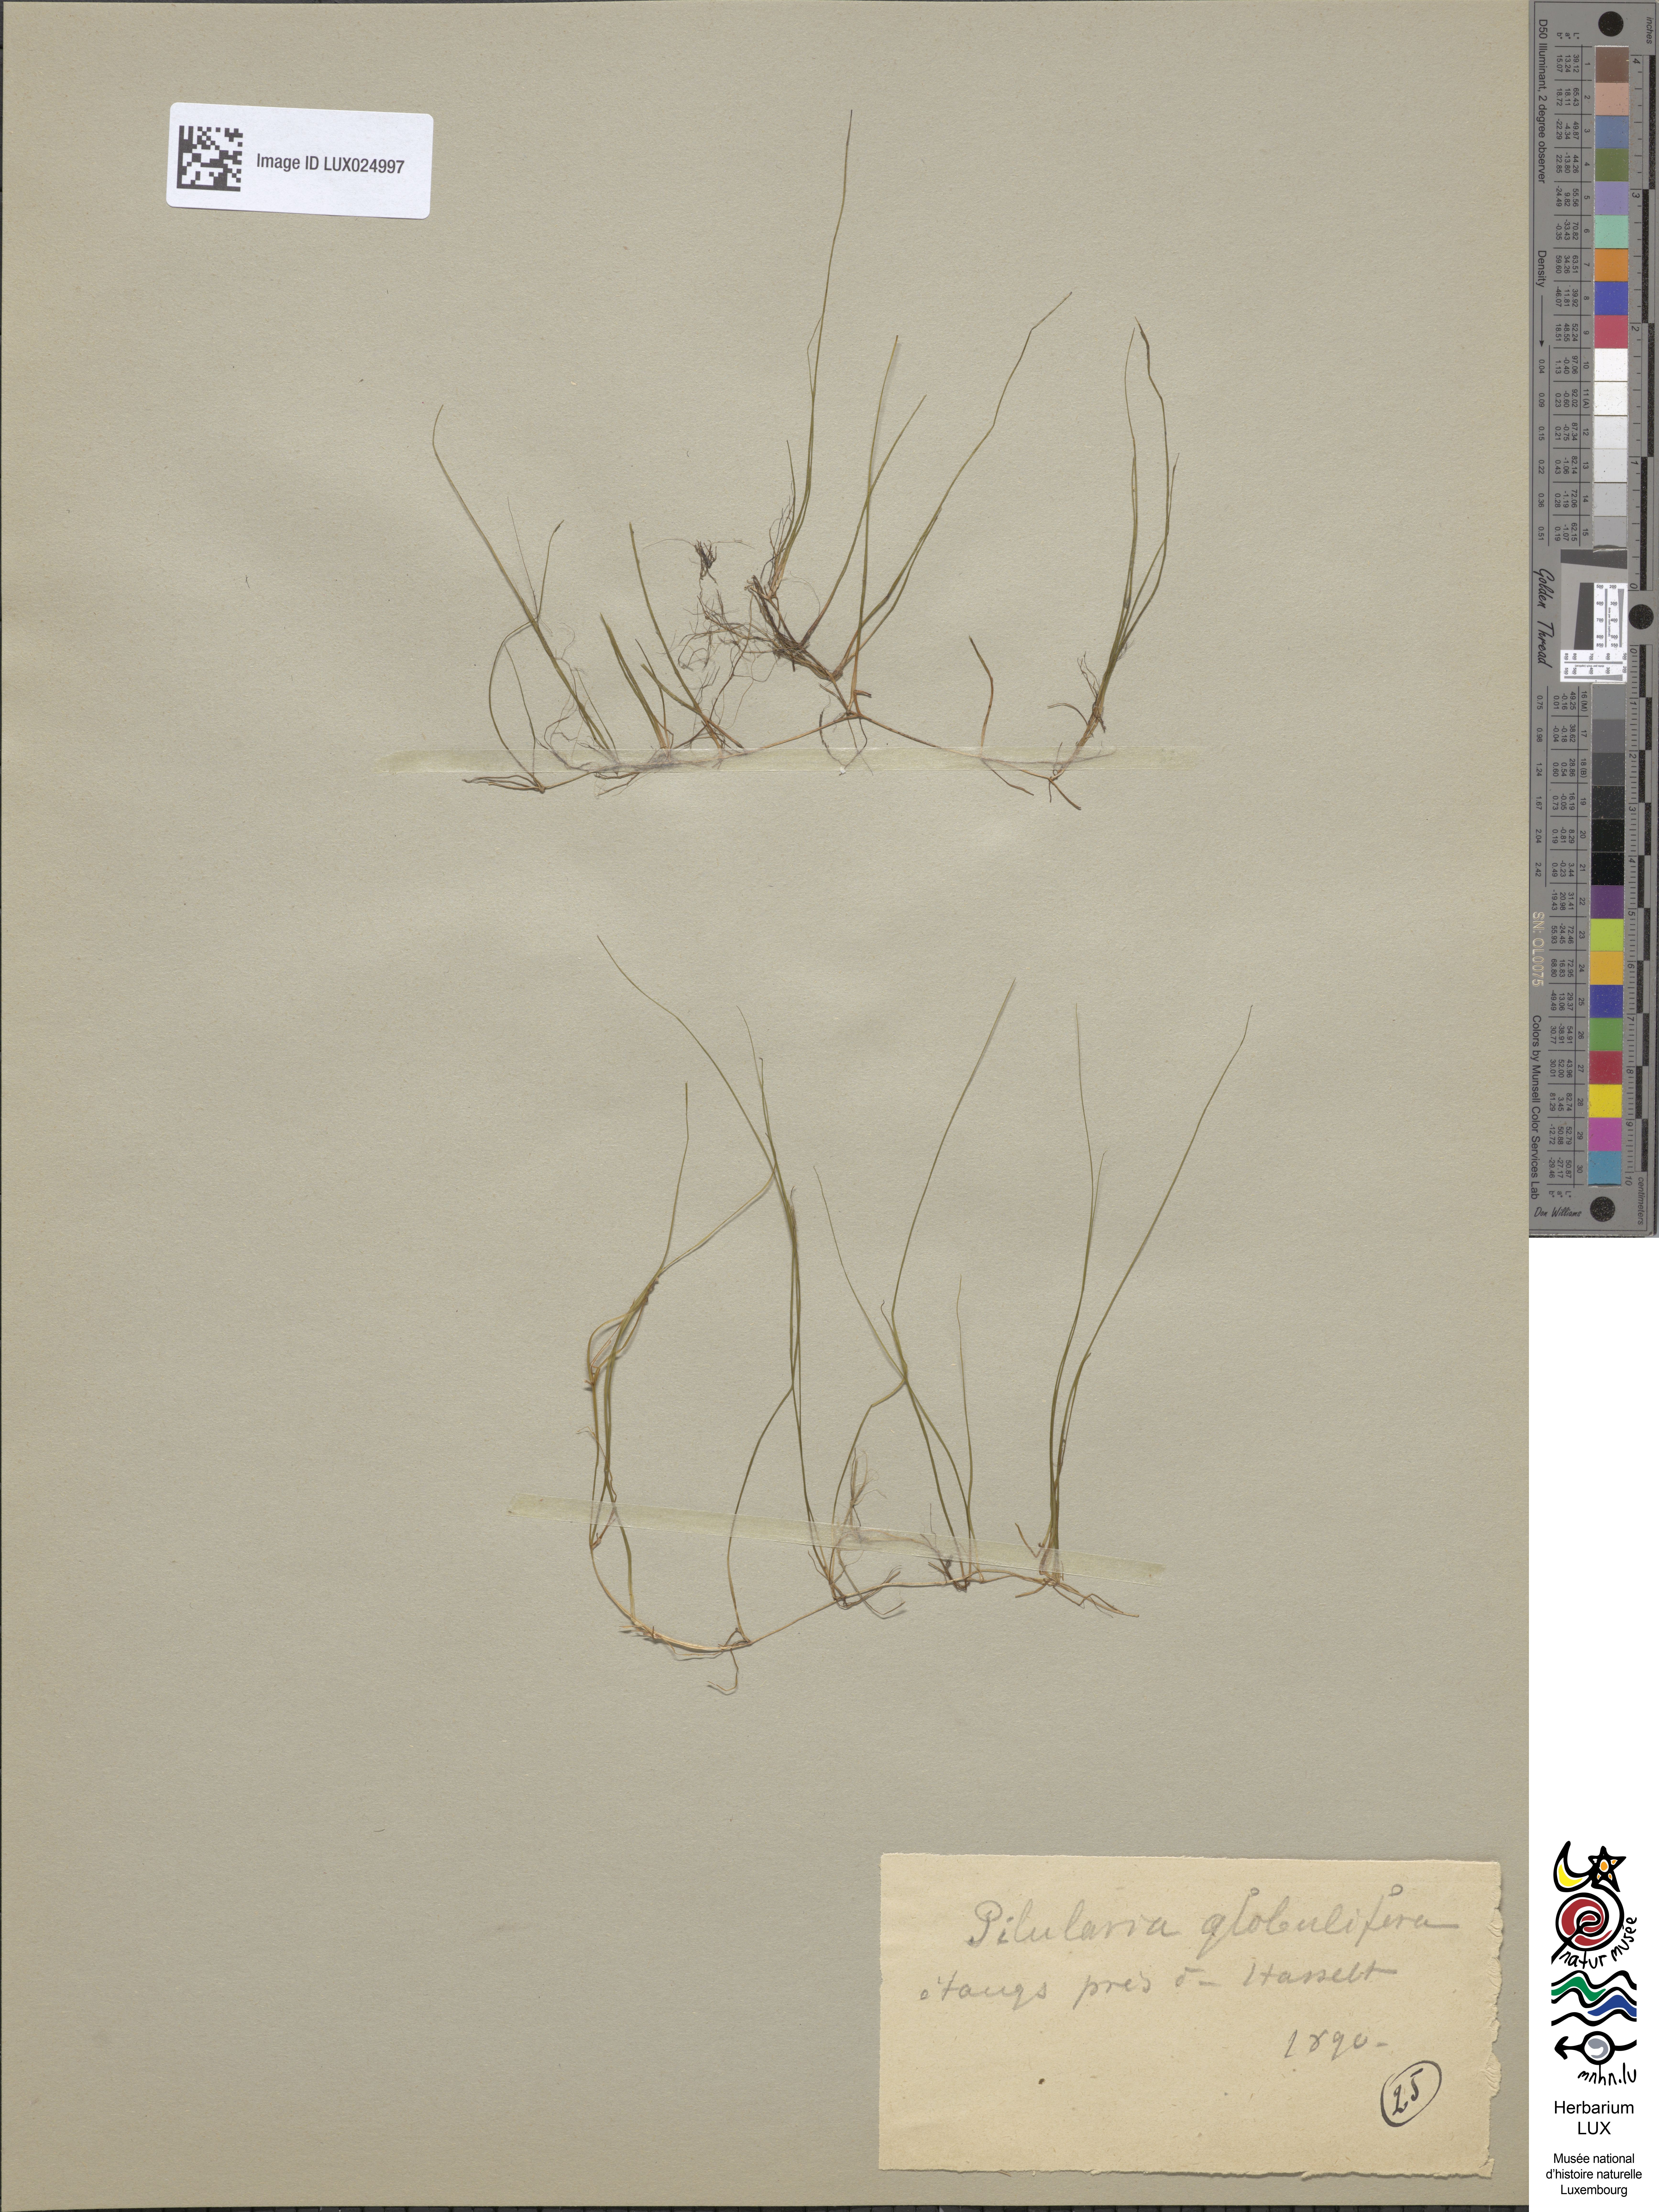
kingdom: Plantae
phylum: Tracheophyta
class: Polypodiopsida
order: Salviniales
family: Marsileaceae
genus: Pilularia
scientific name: Pilularia globulifera
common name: Pillwort
